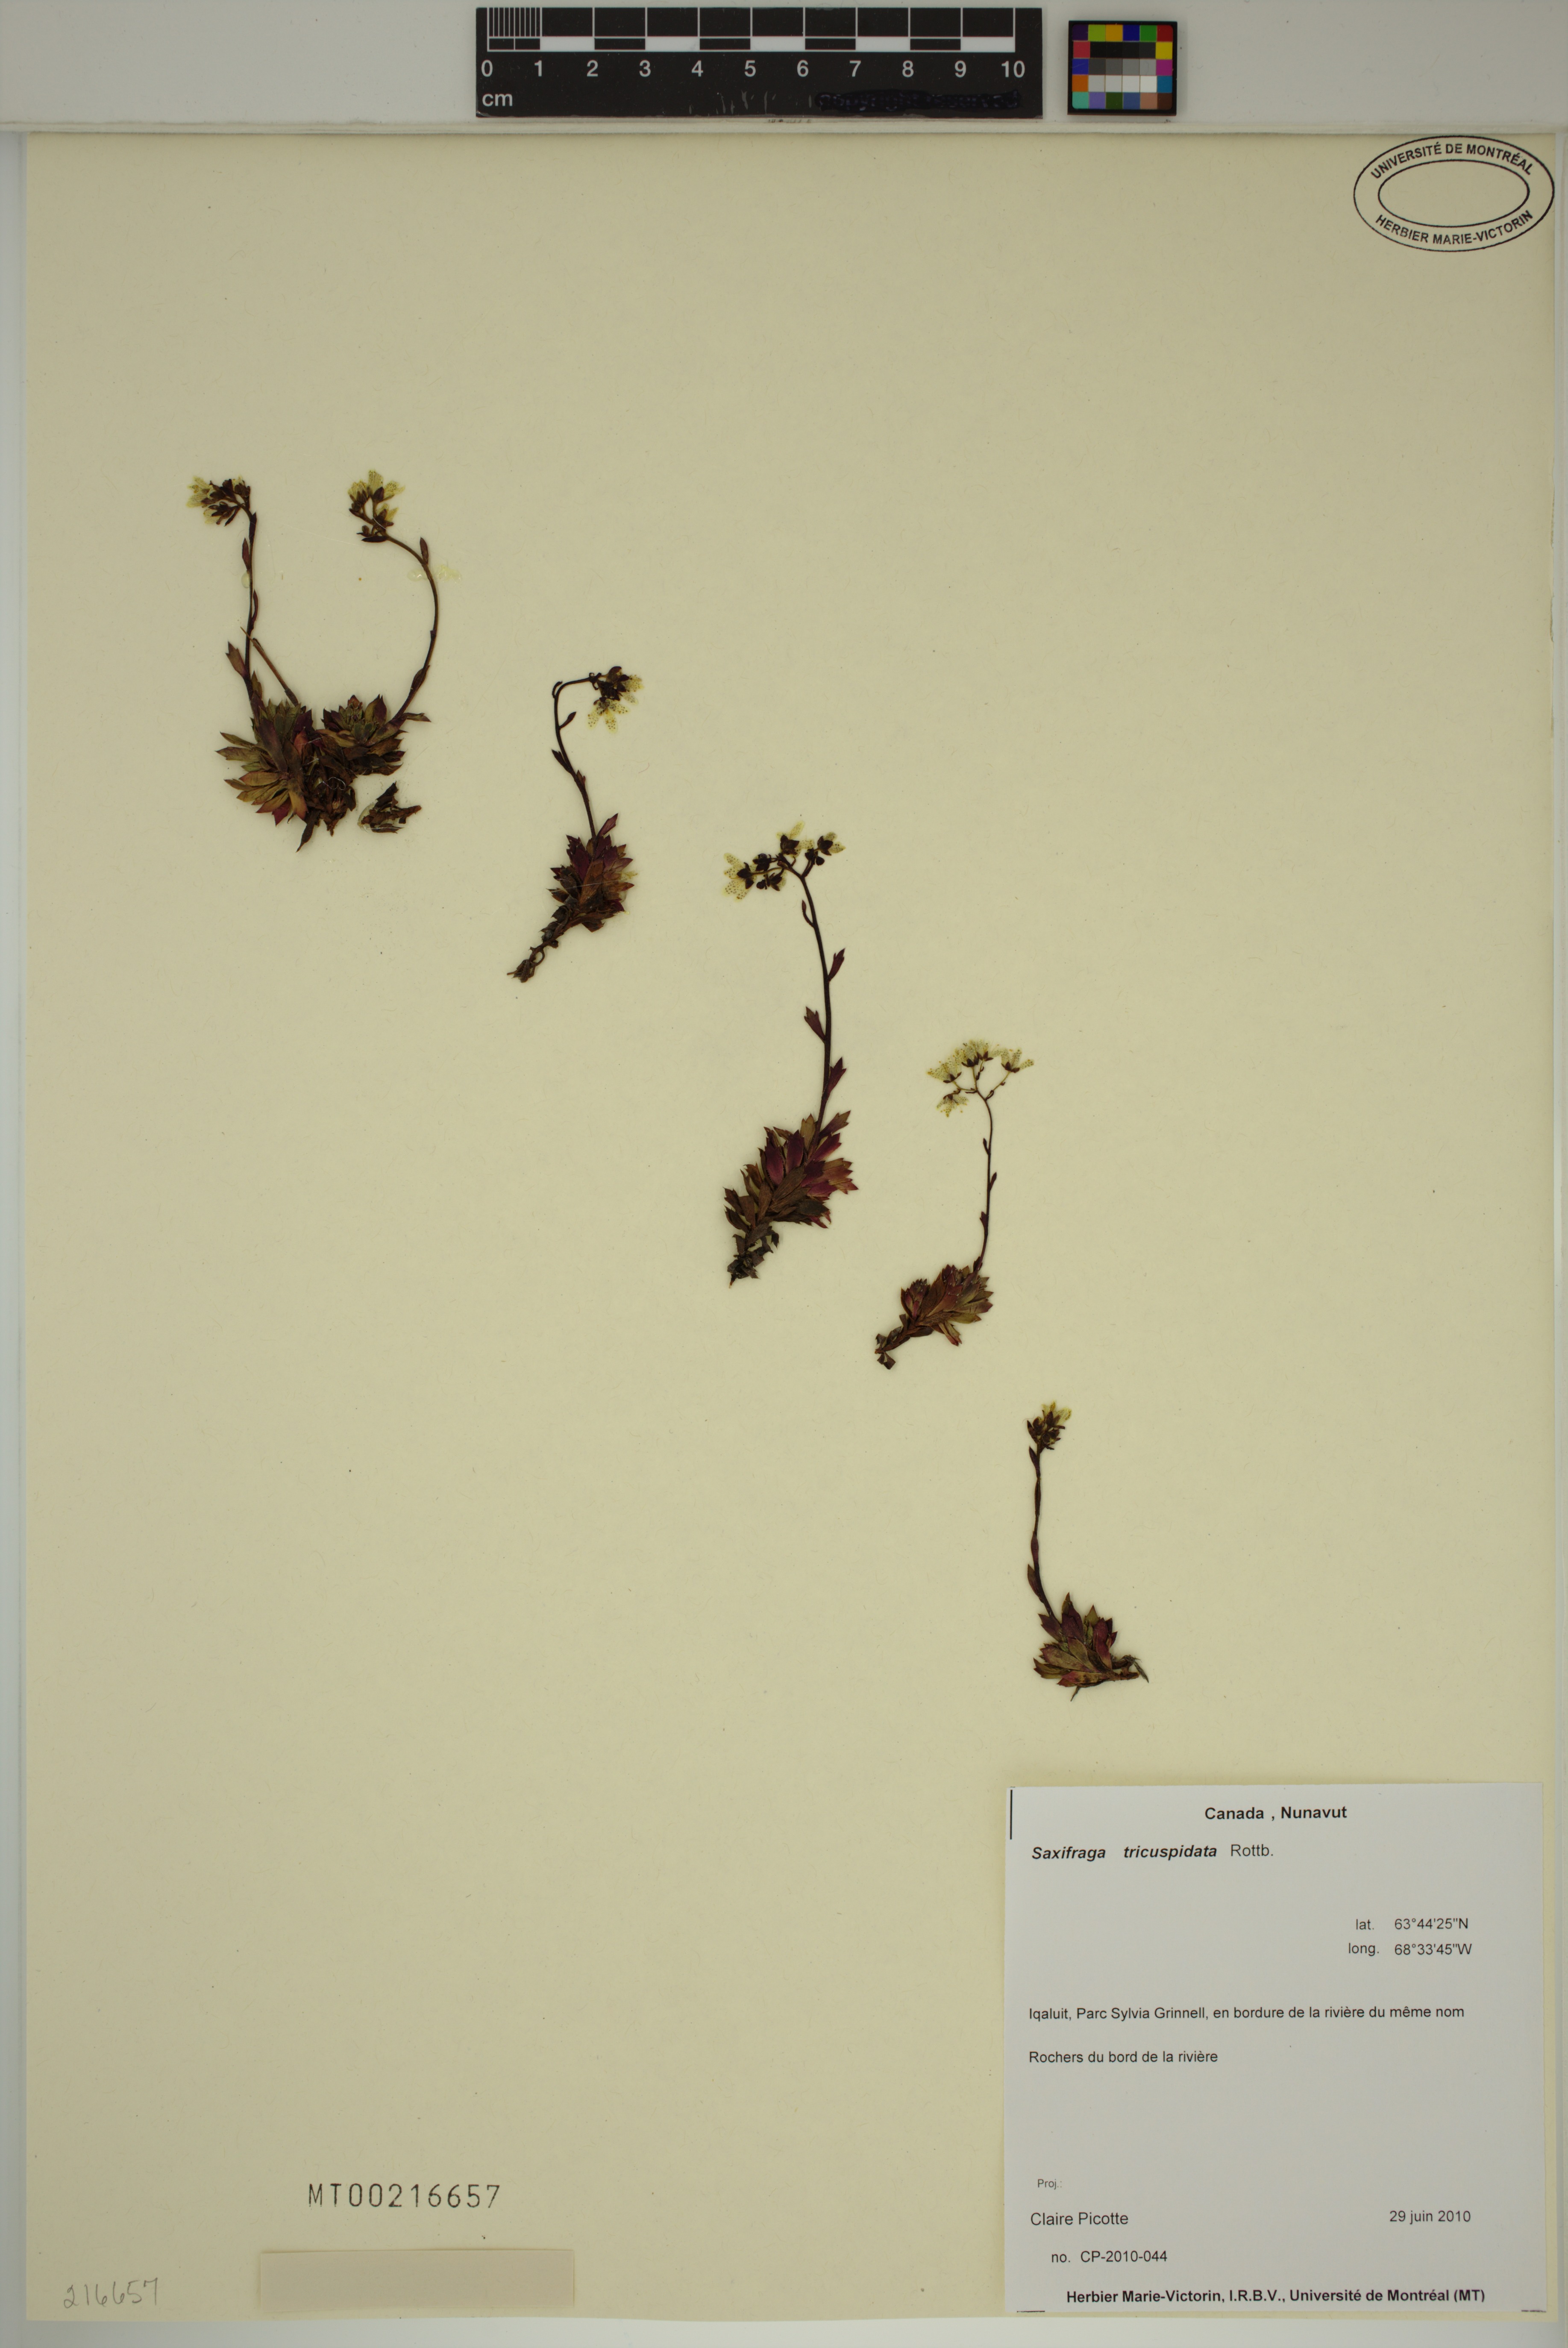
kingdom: Plantae
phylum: Tracheophyta
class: Magnoliopsida
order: Saxifragales
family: Saxifragaceae
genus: Saxifraga
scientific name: Saxifraga tricuspidata
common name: Prickly saxifrage
